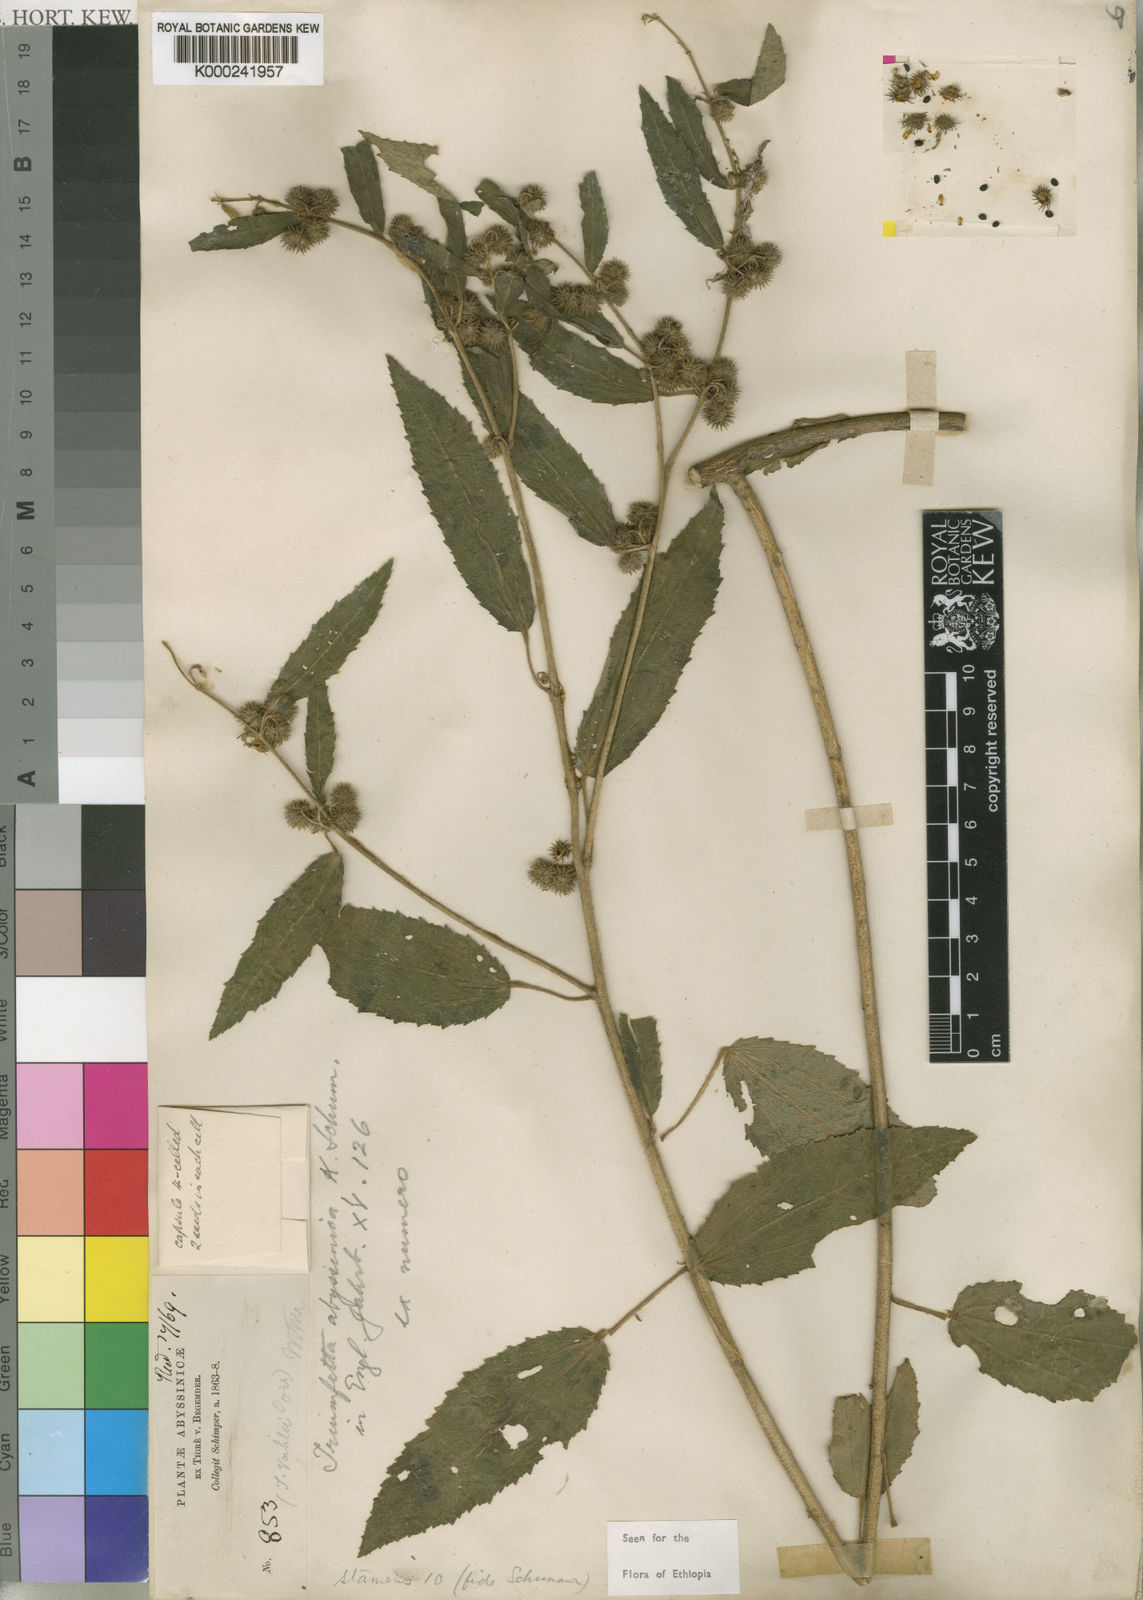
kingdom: Plantae
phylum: Tracheophyta
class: Magnoliopsida
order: Malvales
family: Malvaceae
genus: Triumfetta
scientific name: Triumfetta
